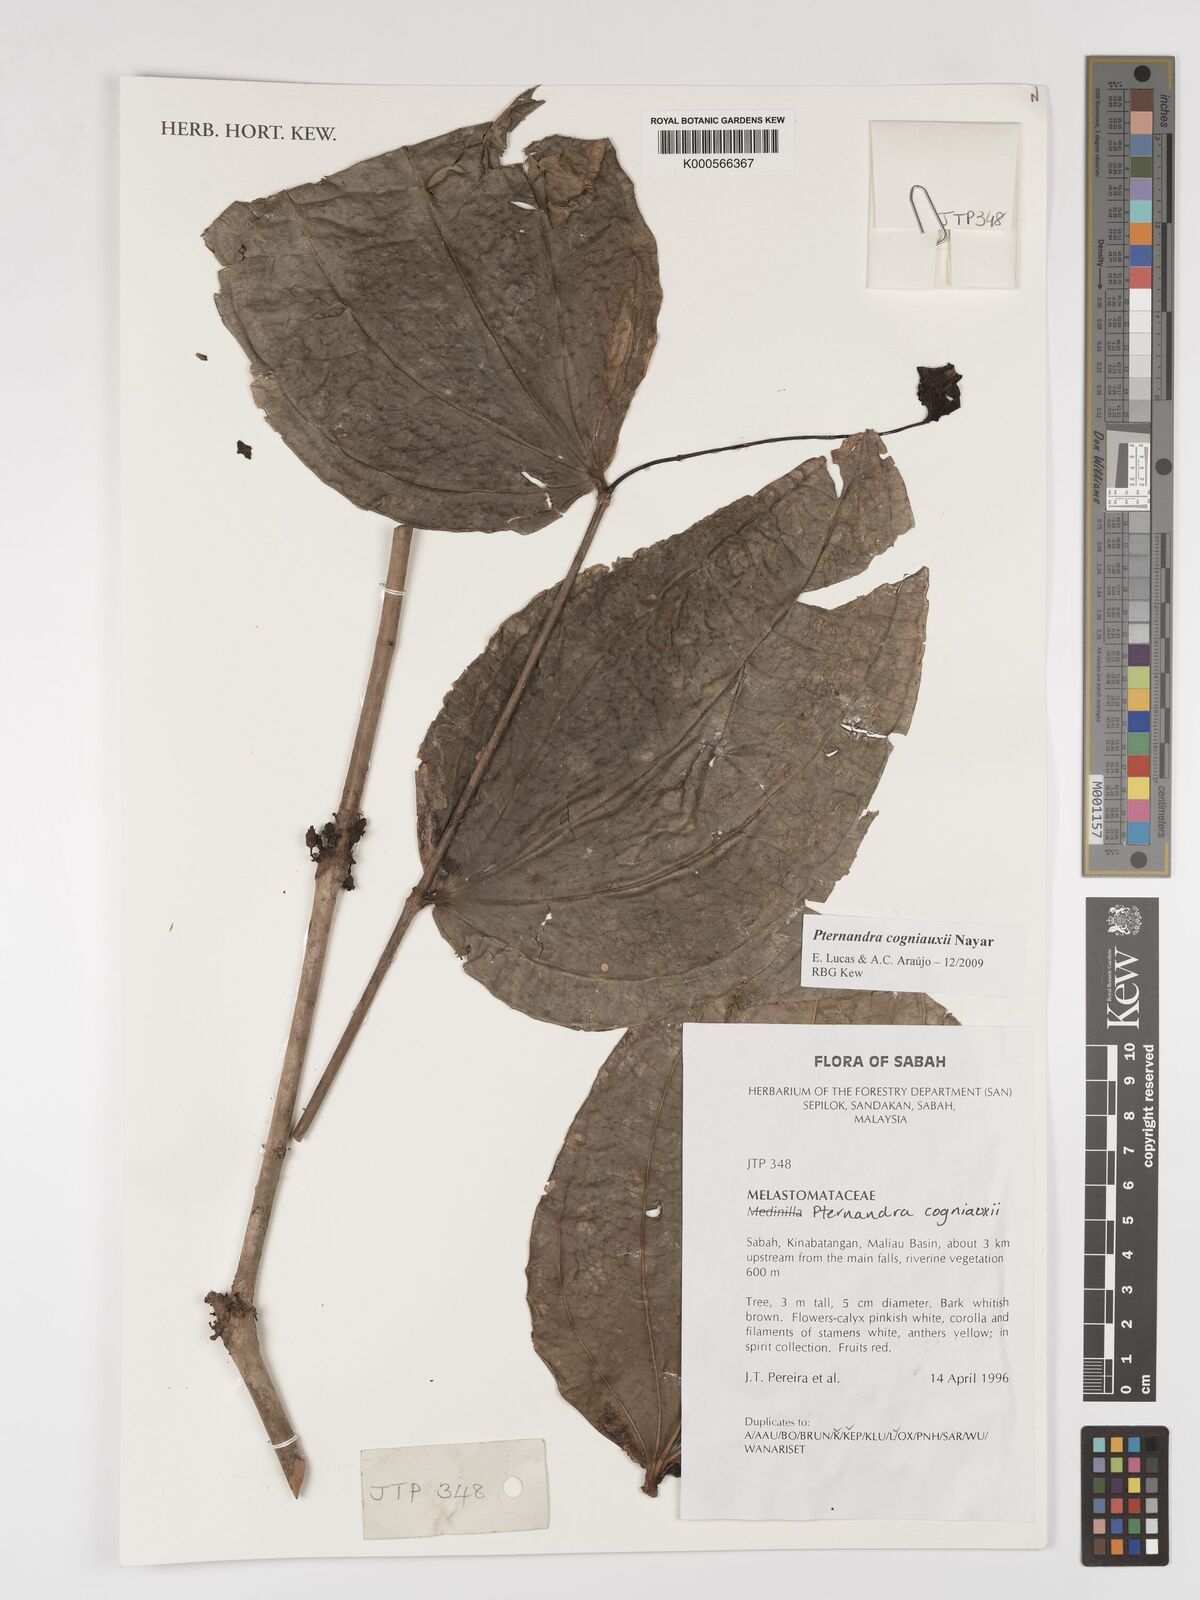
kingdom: Plantae
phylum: Tracheophyta
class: Magnoliopsida
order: Myrtales
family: Melastomataceae
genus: Pternandra
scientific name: Pternandra cogniauxii
